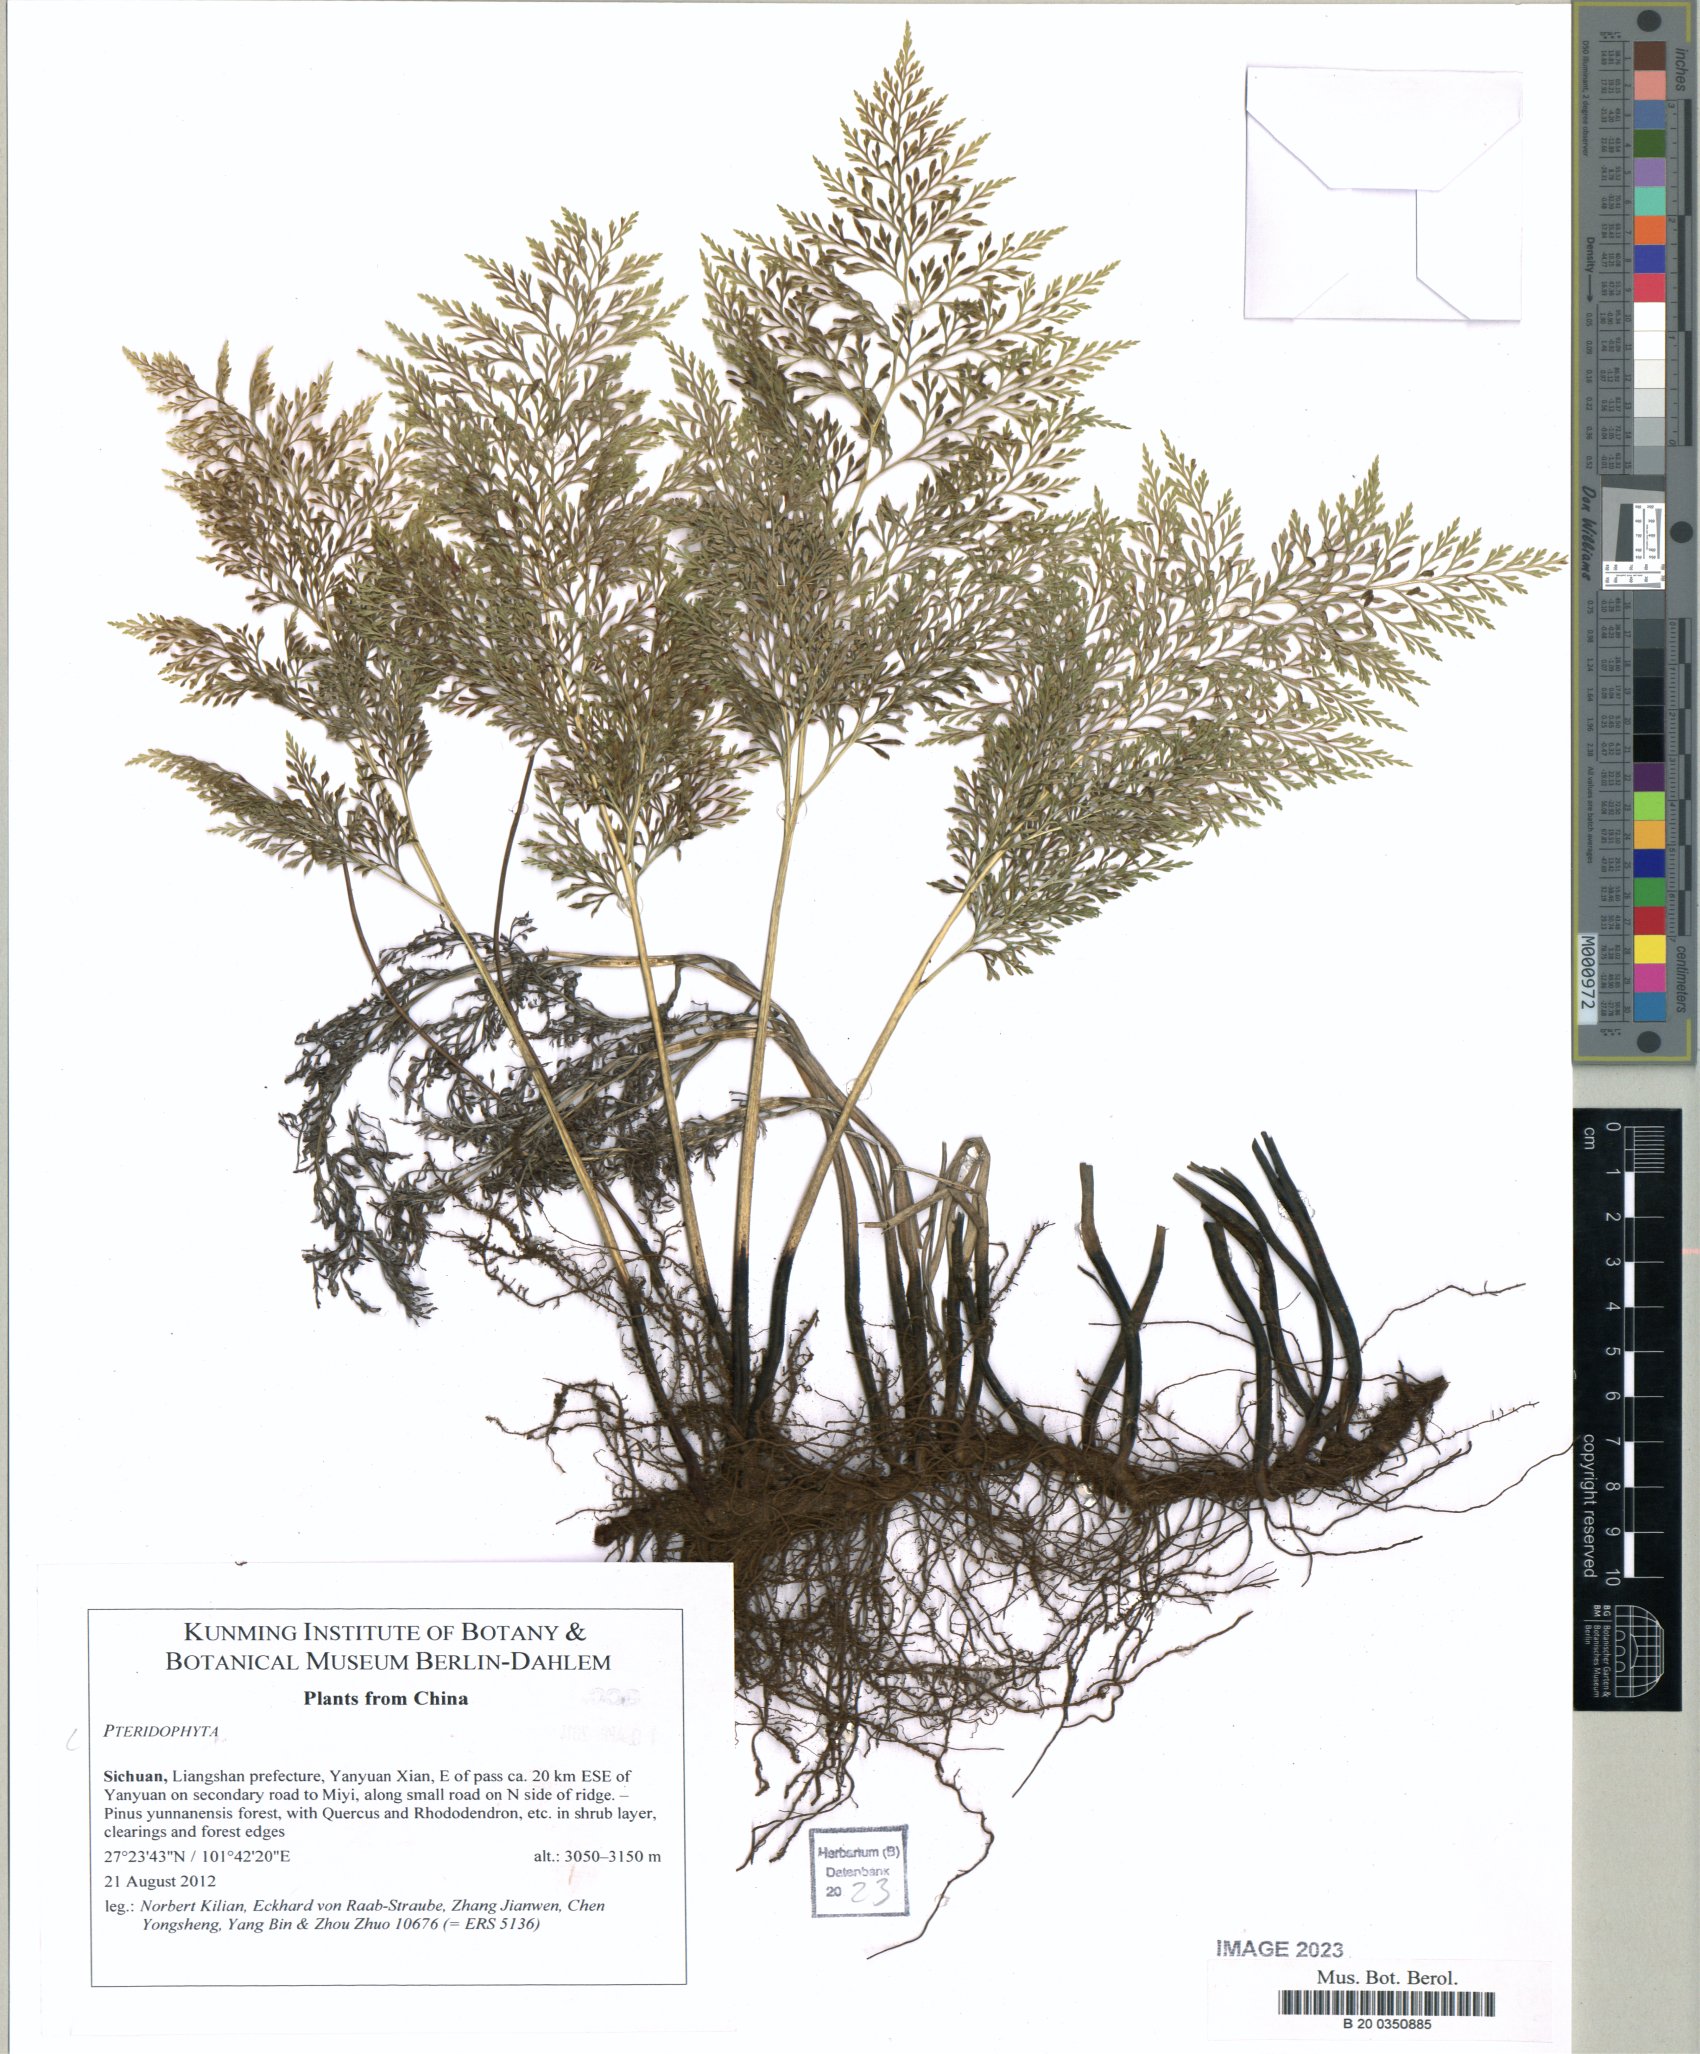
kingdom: Plantae
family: Pteridophyta
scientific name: Pteridophyta
